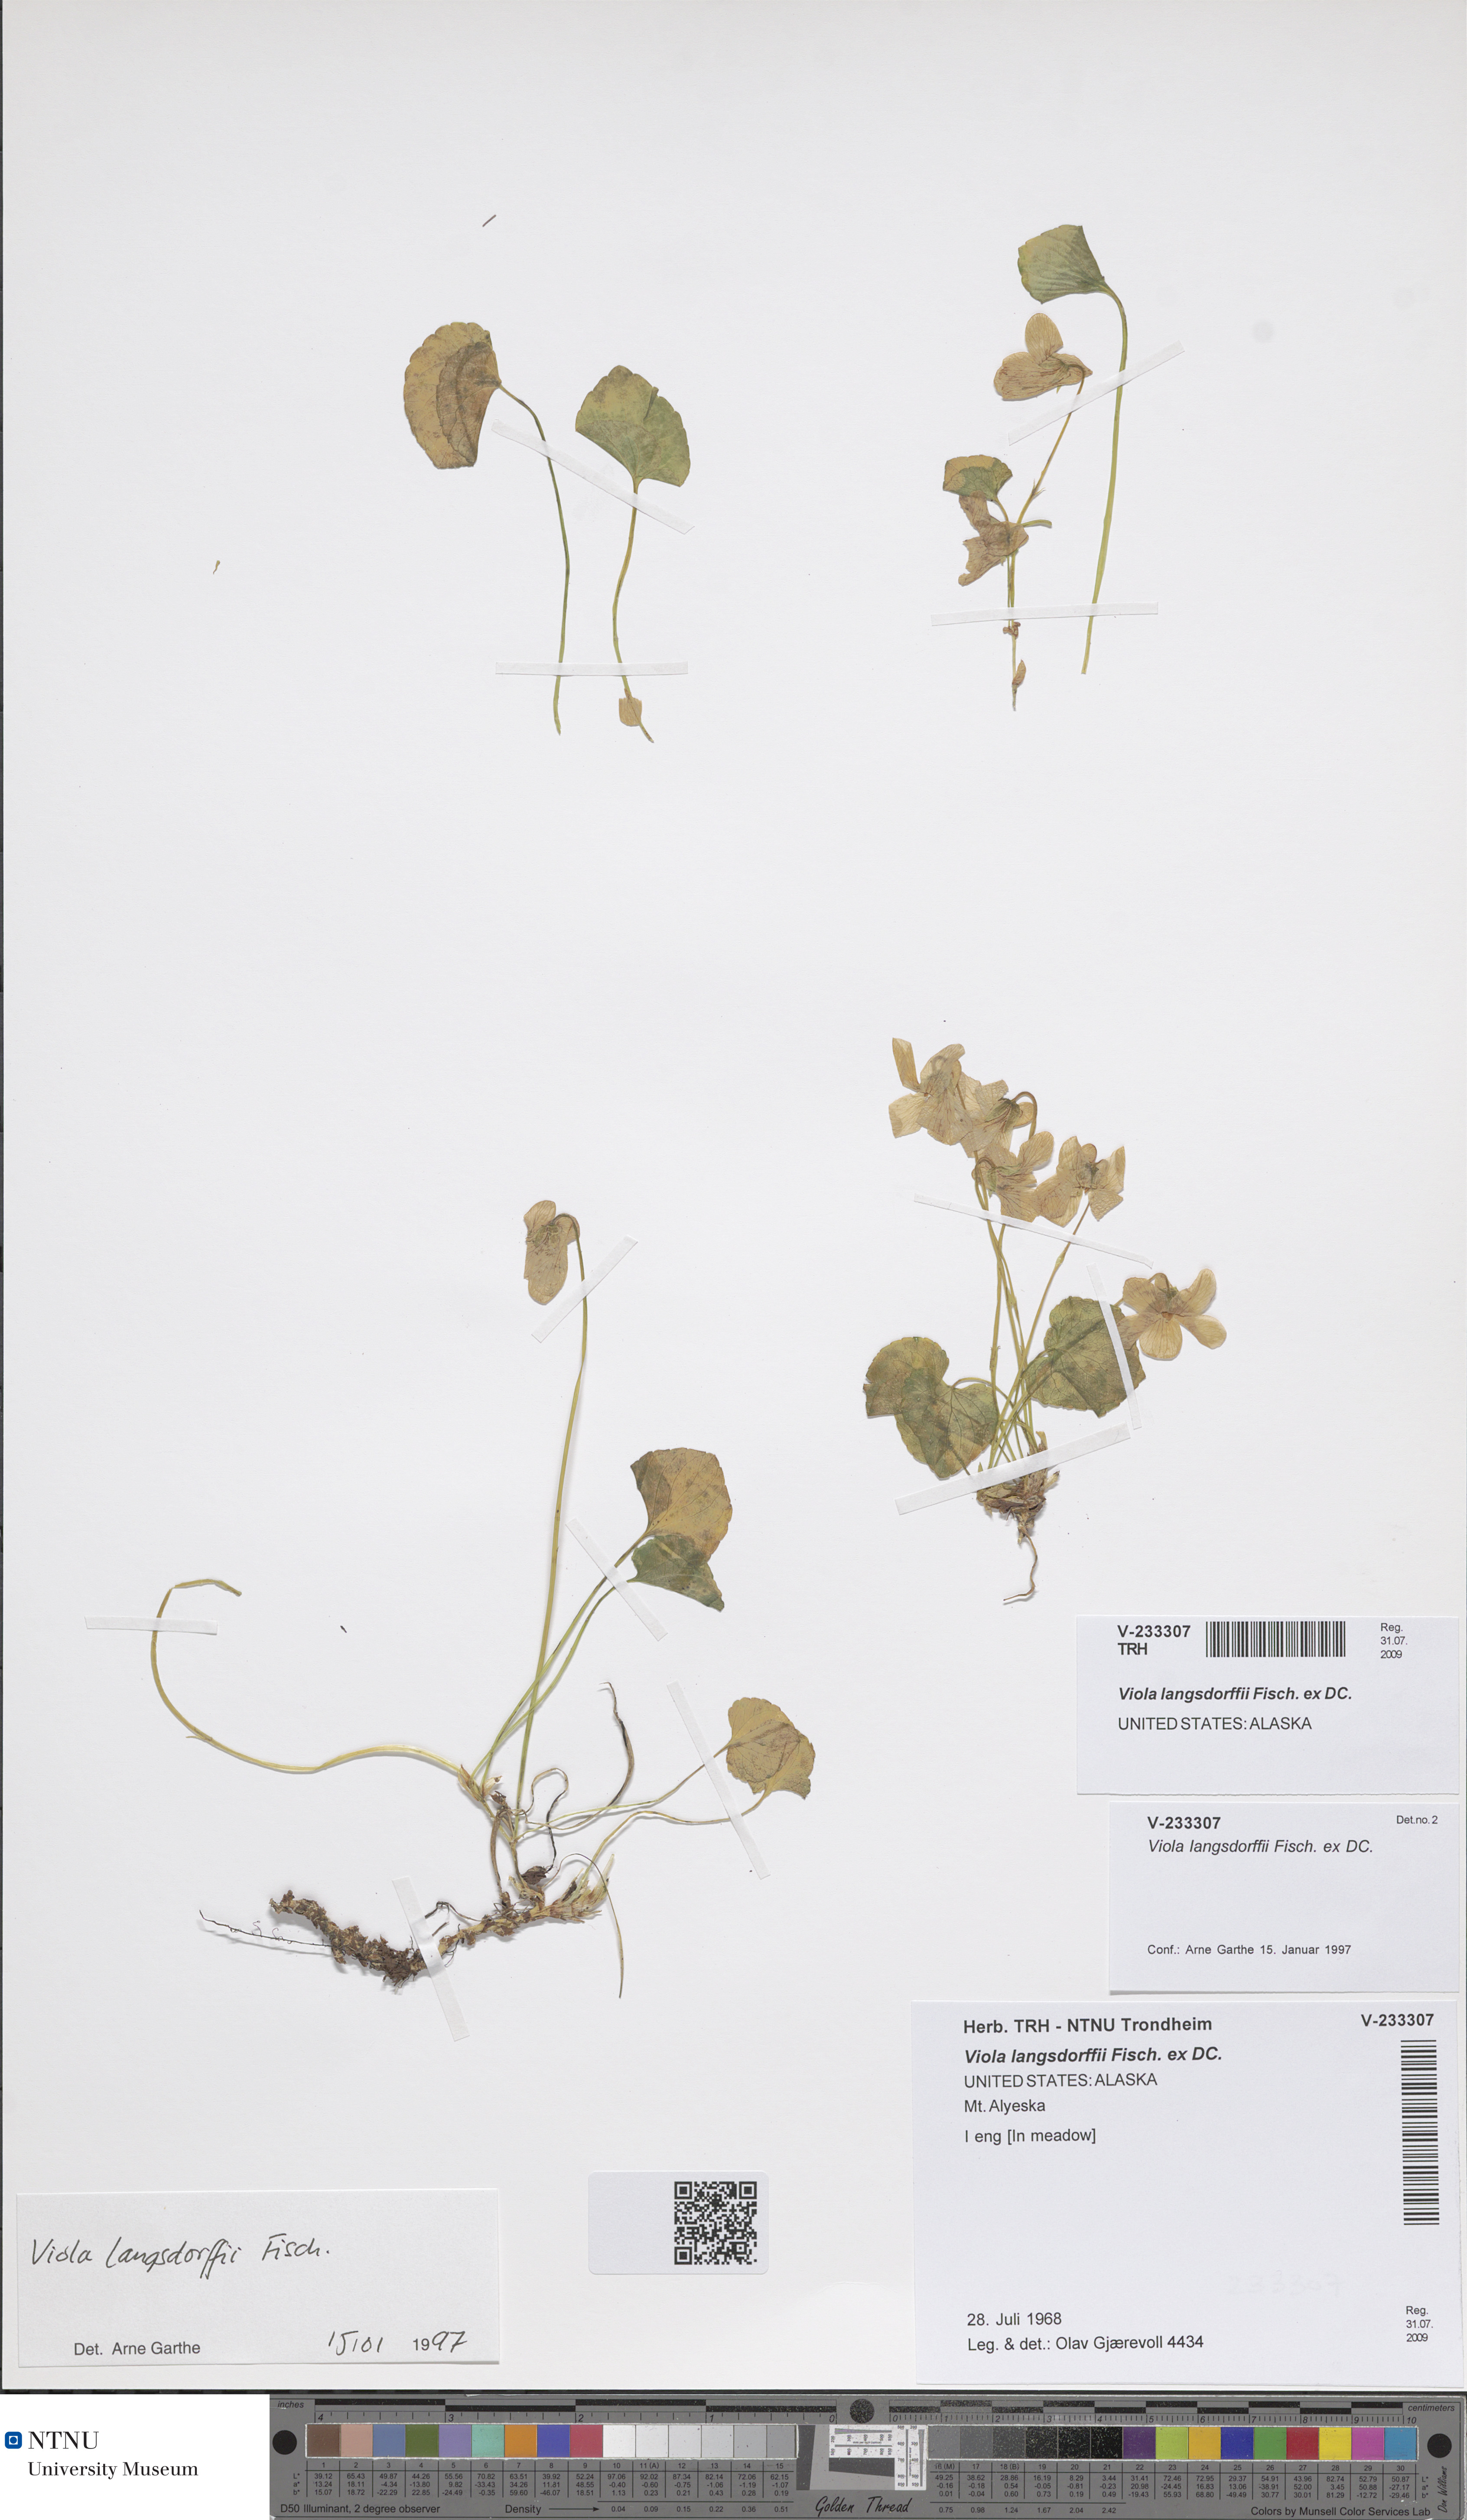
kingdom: Plantae
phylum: Tracheophyta
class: Magnoliopsida
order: Malpighiales
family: Violaceae
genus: Viola
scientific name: Viola langsdorffii
